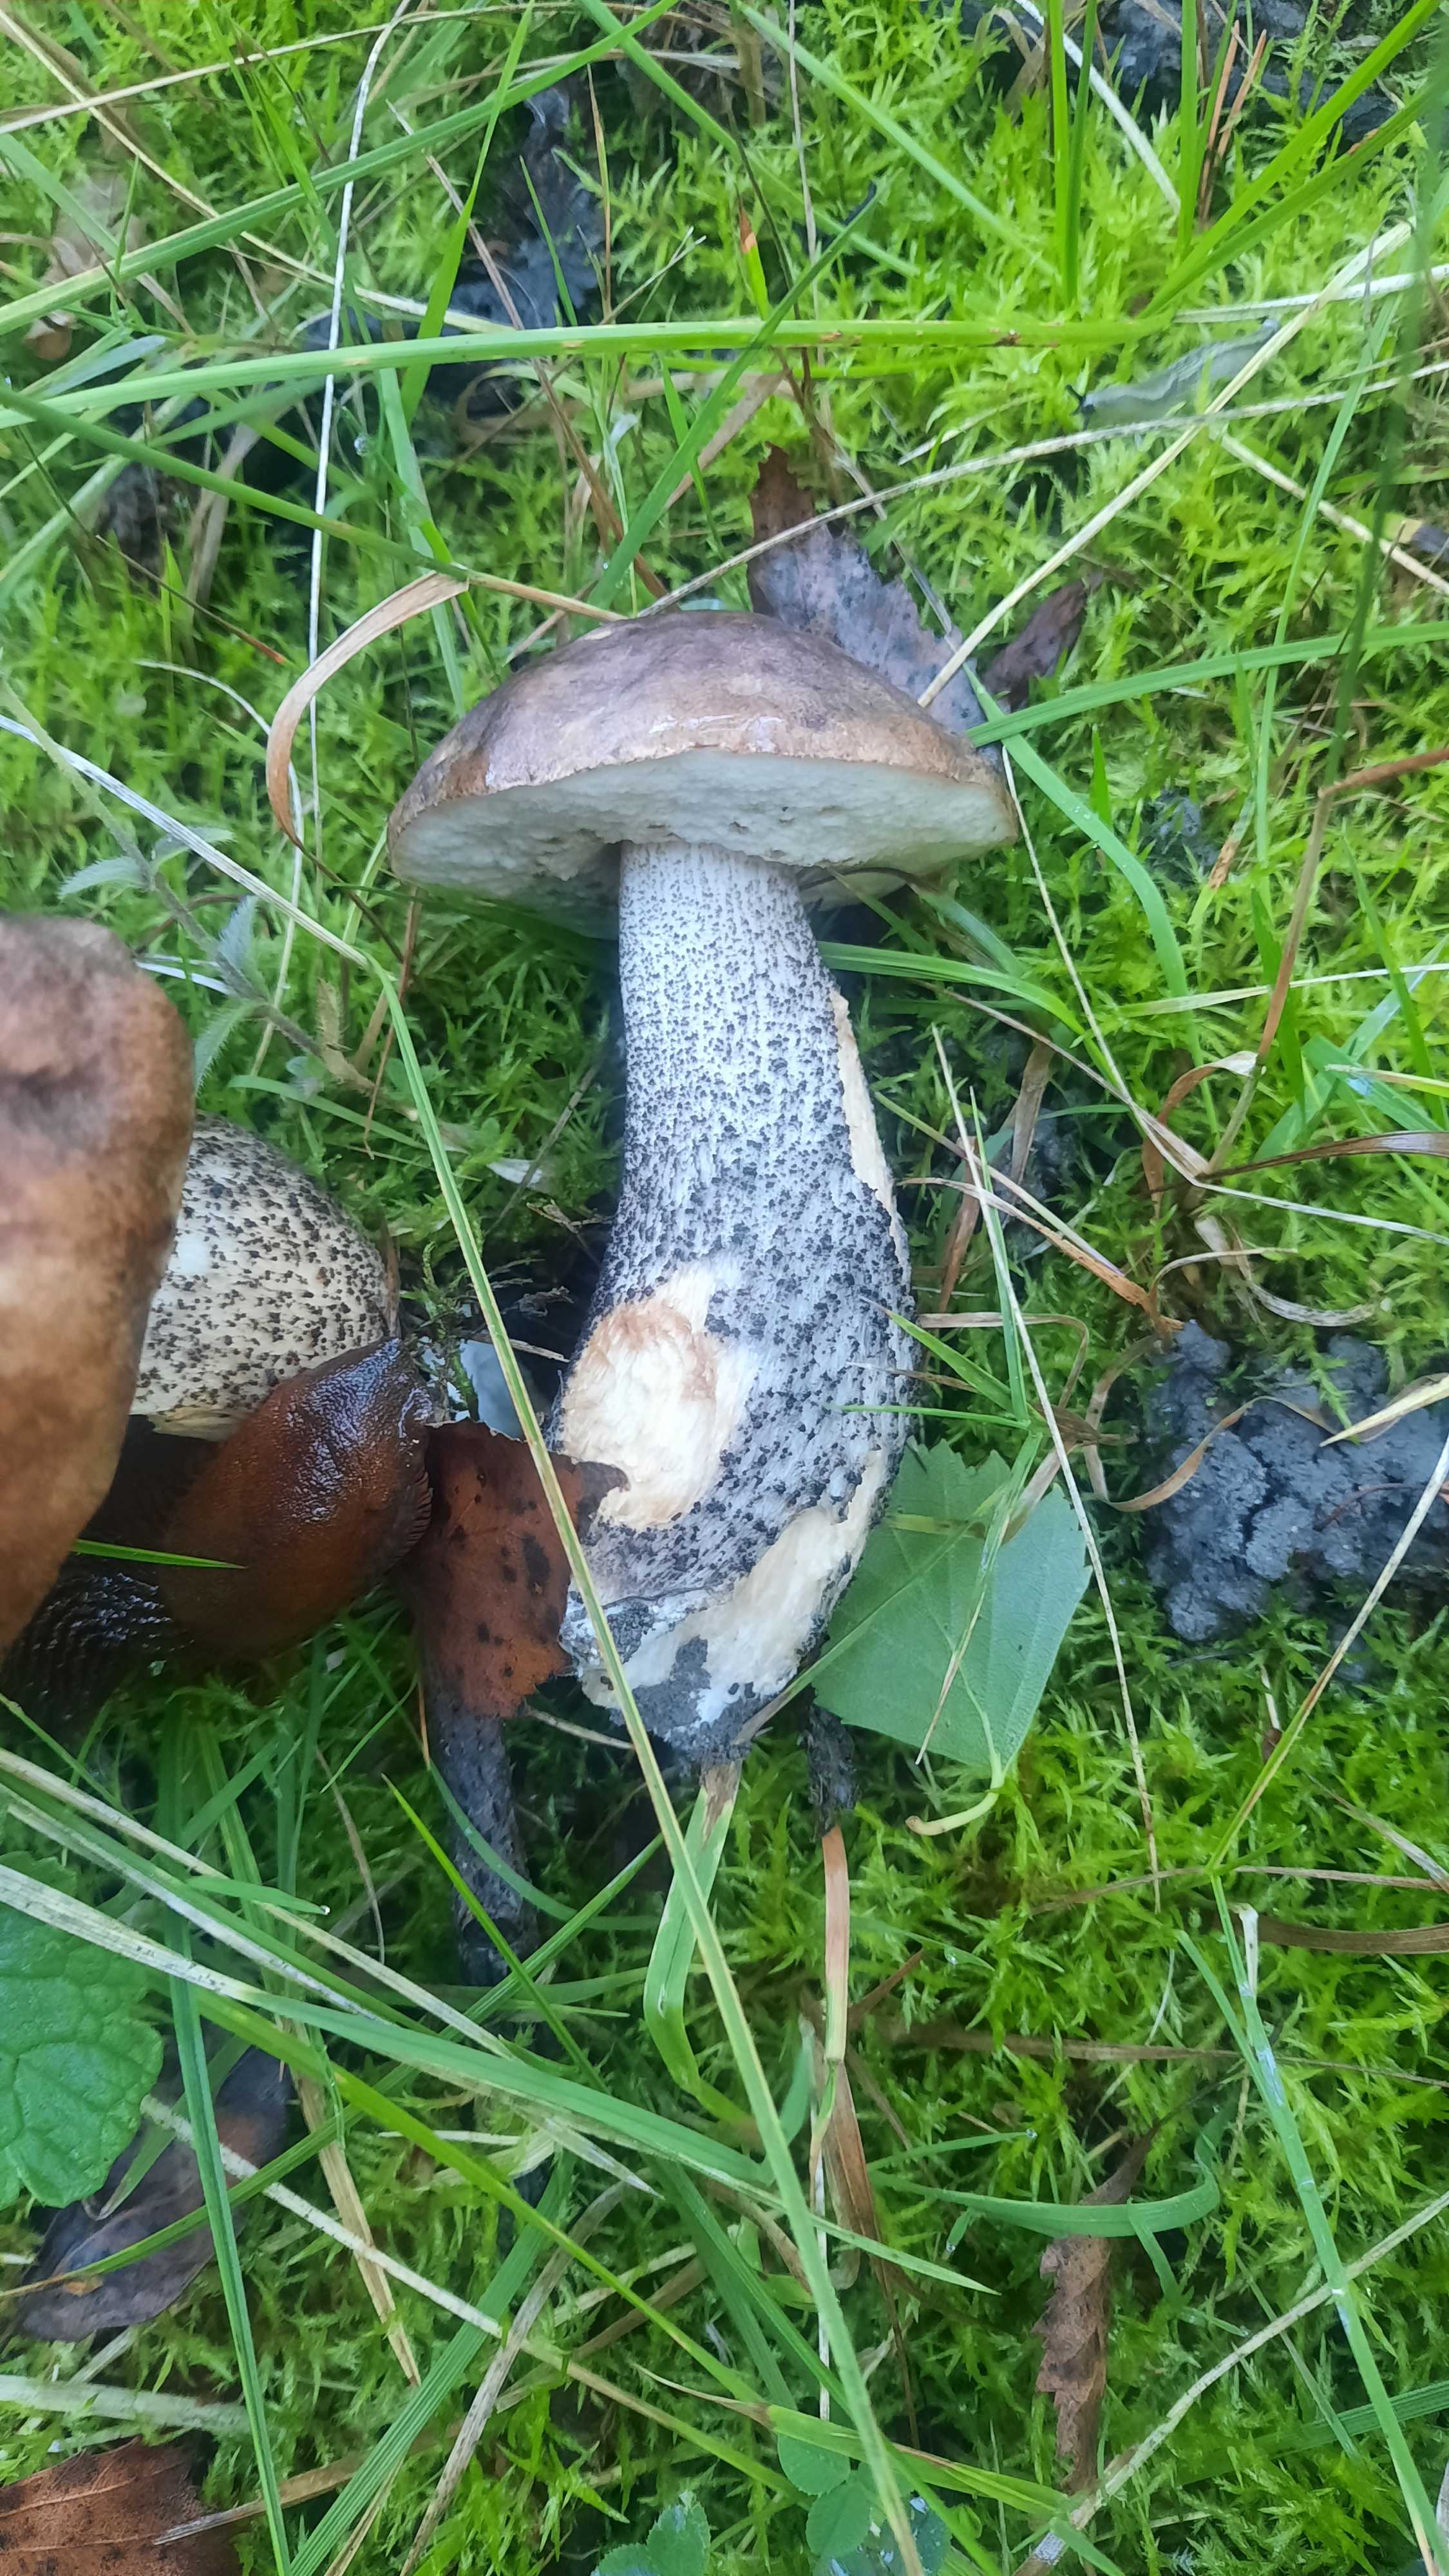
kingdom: Fungi
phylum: Basidiomycota
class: Agaricomycetes
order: Boletales
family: Boletaceae
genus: Leccinum
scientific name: Leccinum variicolor
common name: flammet skælrørhat
